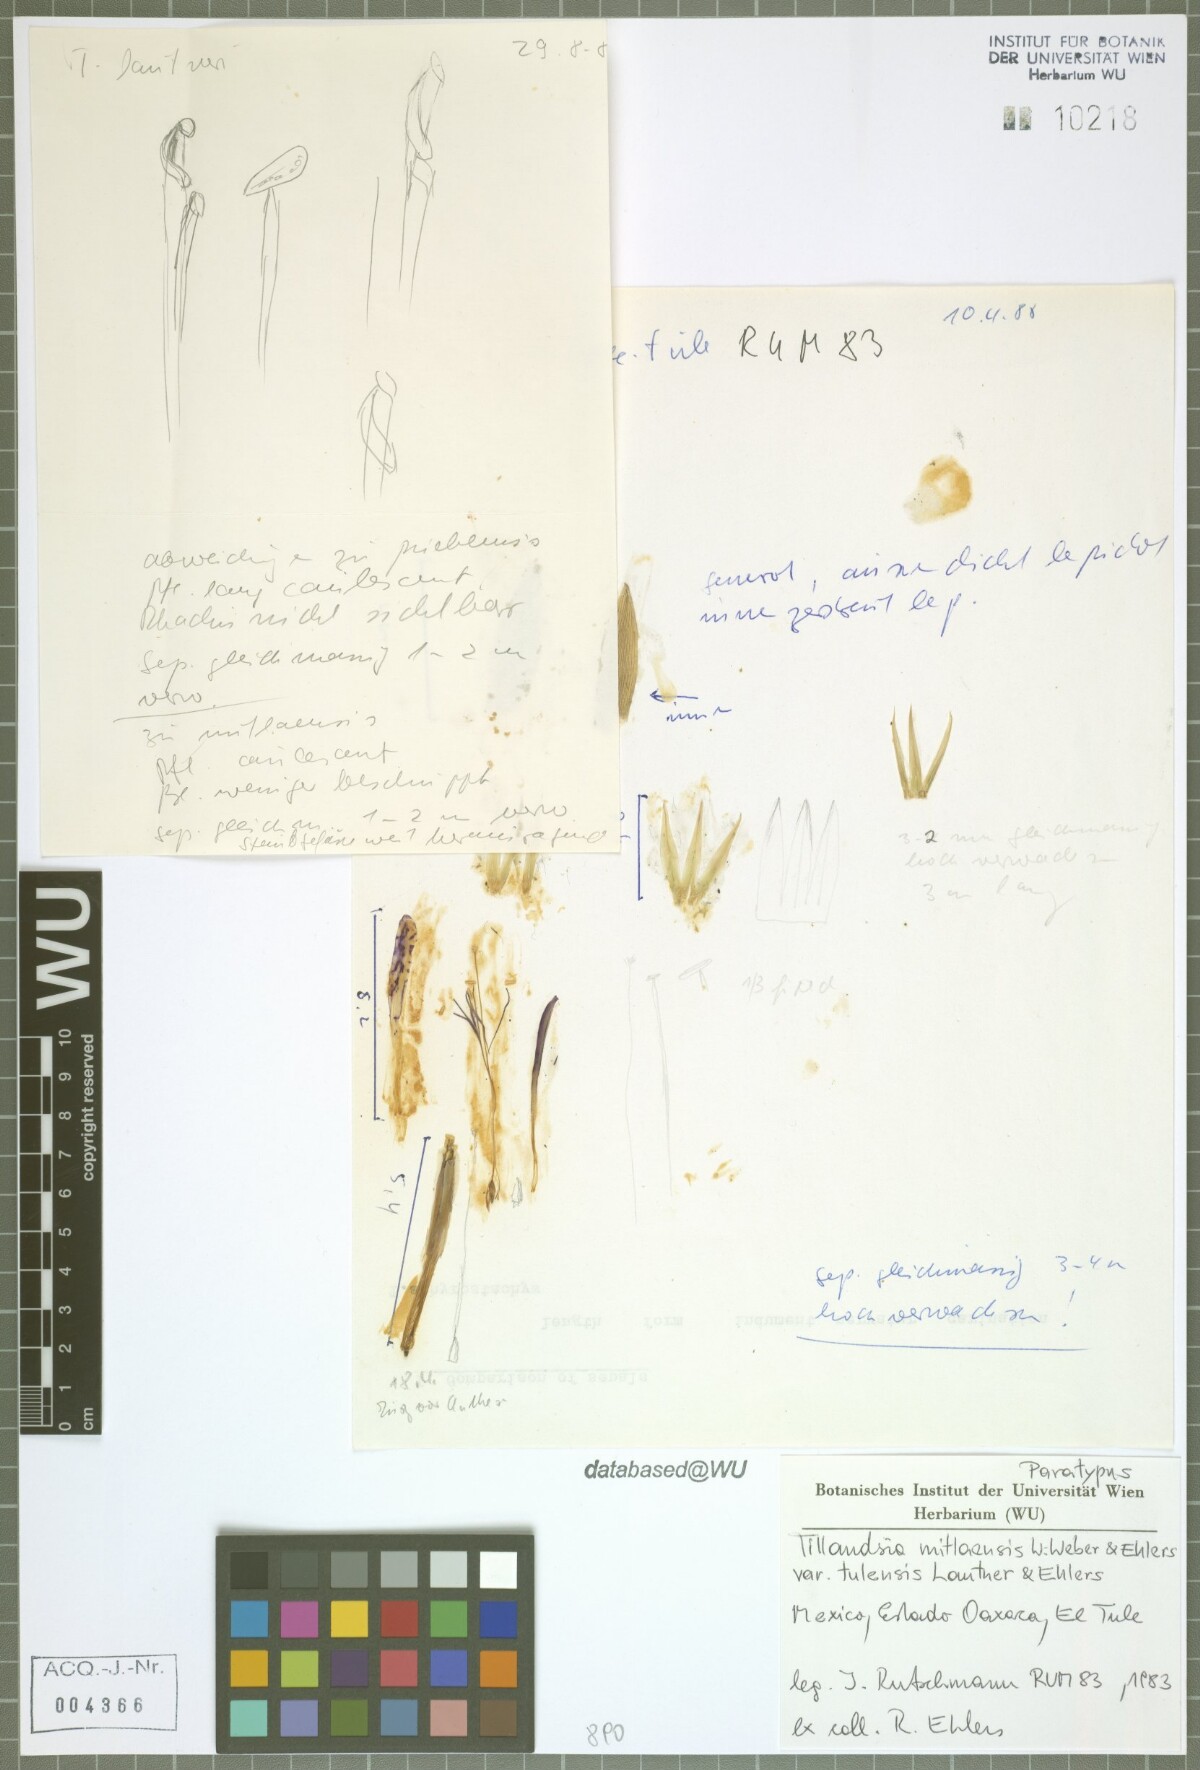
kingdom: Plantae
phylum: Tracheophyta
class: Liliopsida
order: Poales
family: Bromeliaceae
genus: Tillandsia
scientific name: Tillandsia mitlaensis
